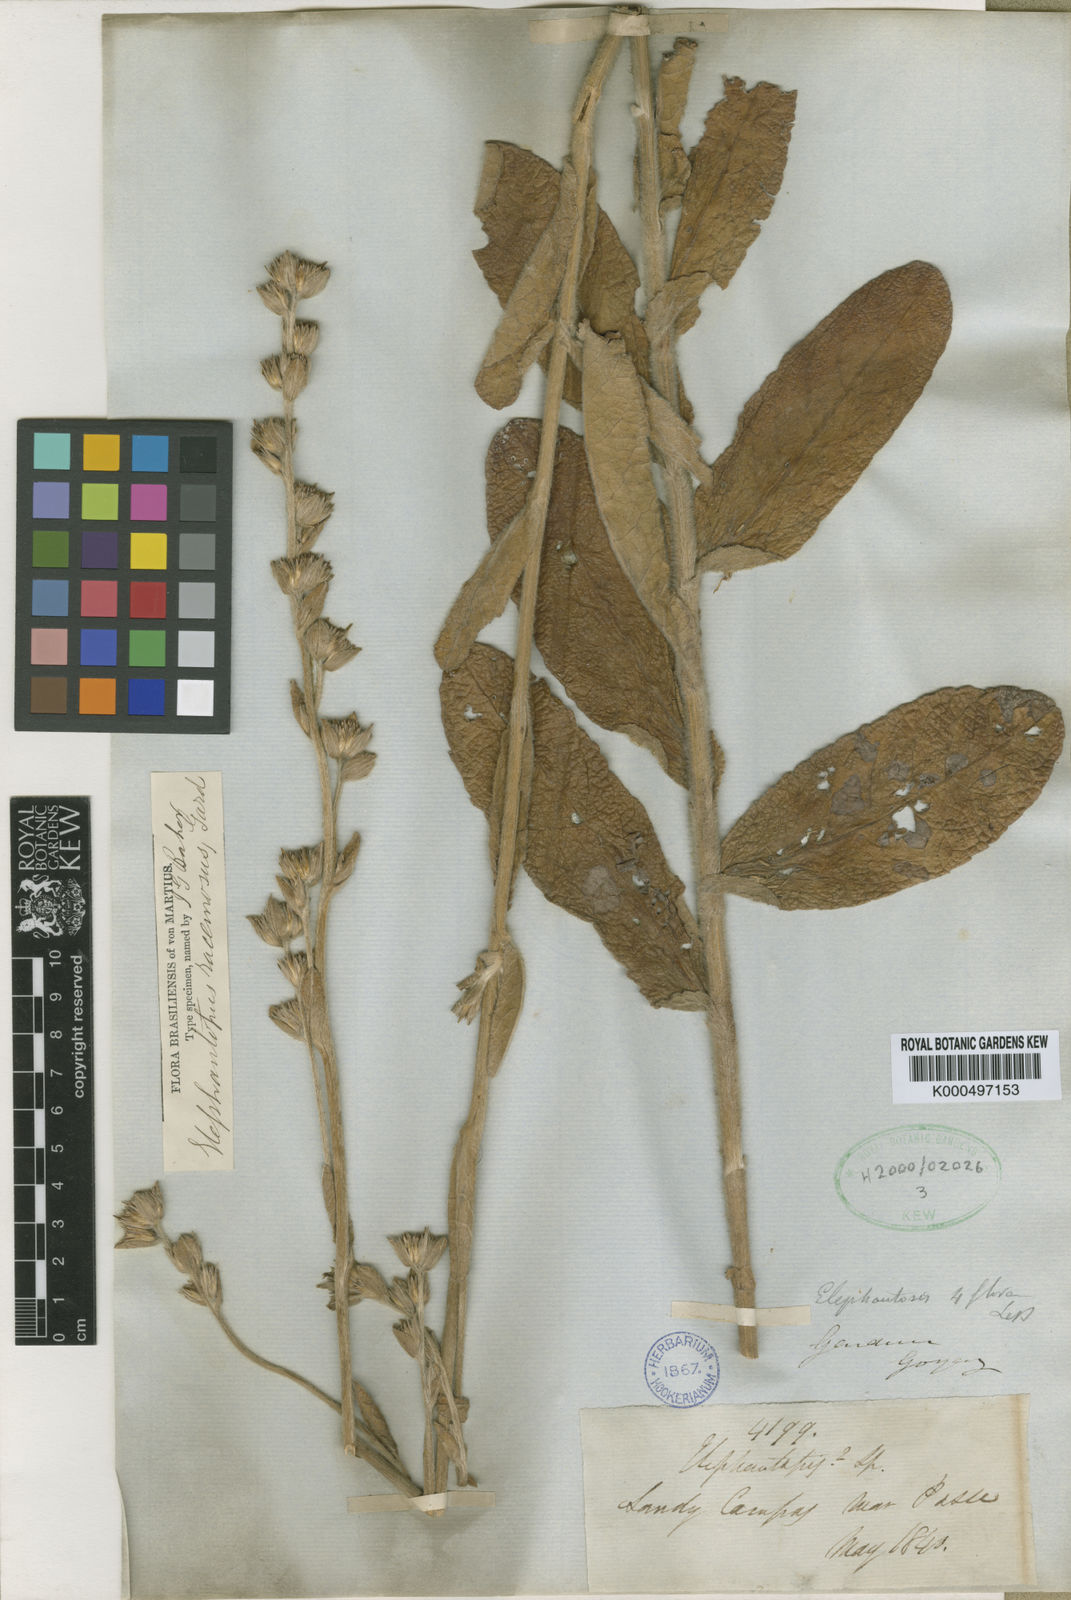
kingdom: Plantae
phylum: Tracheophyta
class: Magnoliopsida
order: Asterales
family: Asteraceae
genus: Elephantopus
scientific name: Elephantopus racemosus
